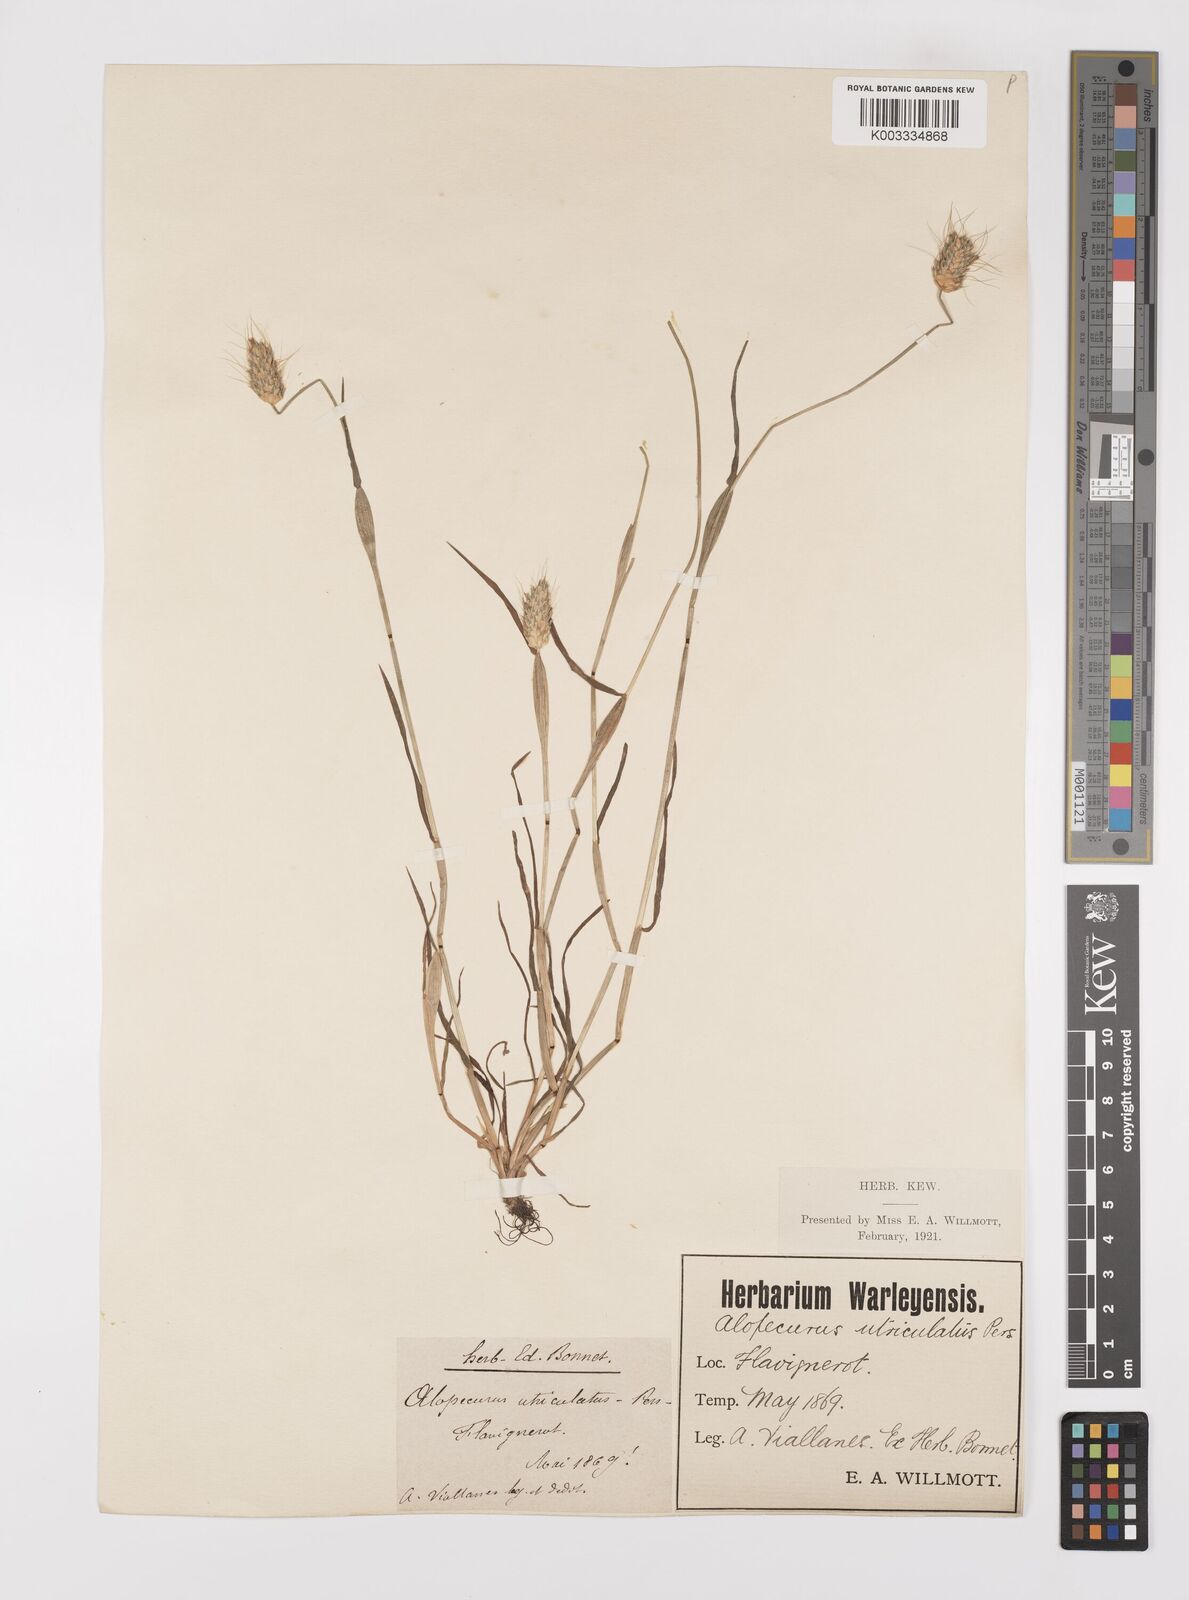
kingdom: Plantae
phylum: Tracheophyta
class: Liliopsida
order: Poales
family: Poaceae
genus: Alopecurus
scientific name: Alopecurus rendlei
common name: Rendle's meadow foxtail
